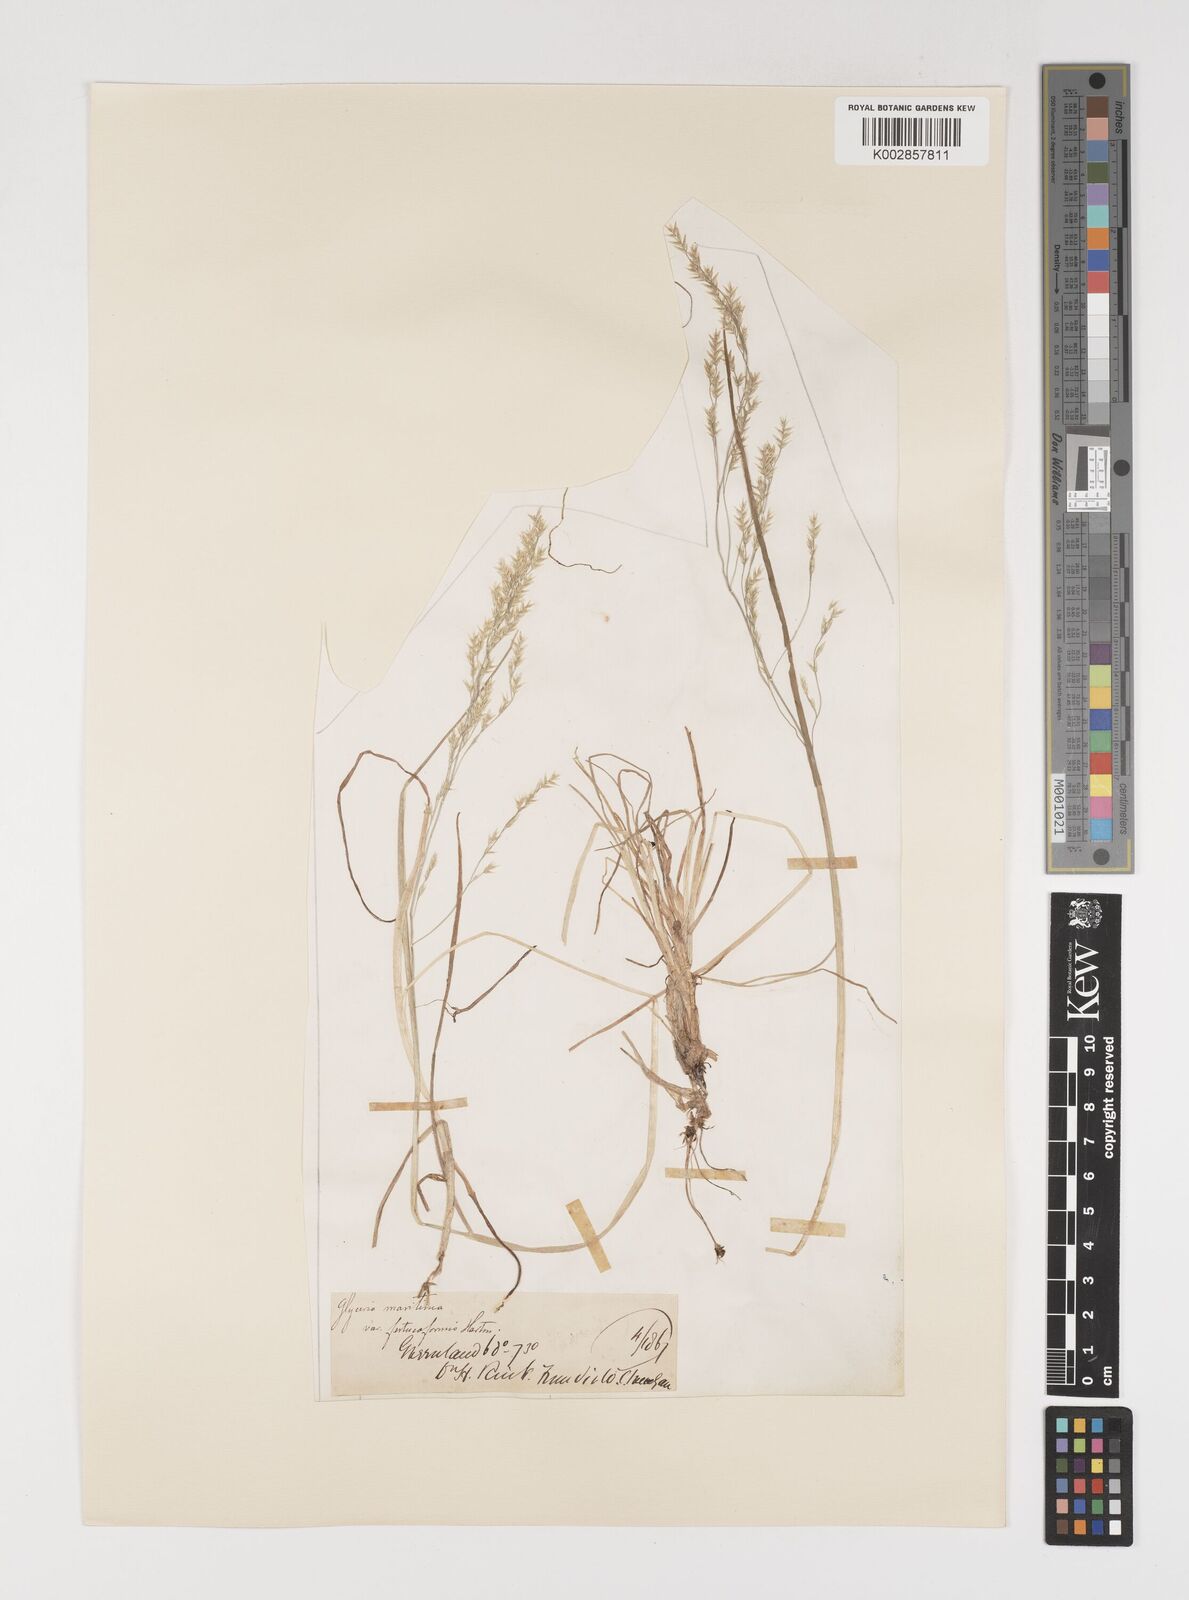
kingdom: Plantae
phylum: Tracheophyta
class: Liliopsida
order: Poales
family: Poaceae
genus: Puccinellia
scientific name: Puccinellia angustata
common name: Narrow alkaligrass
